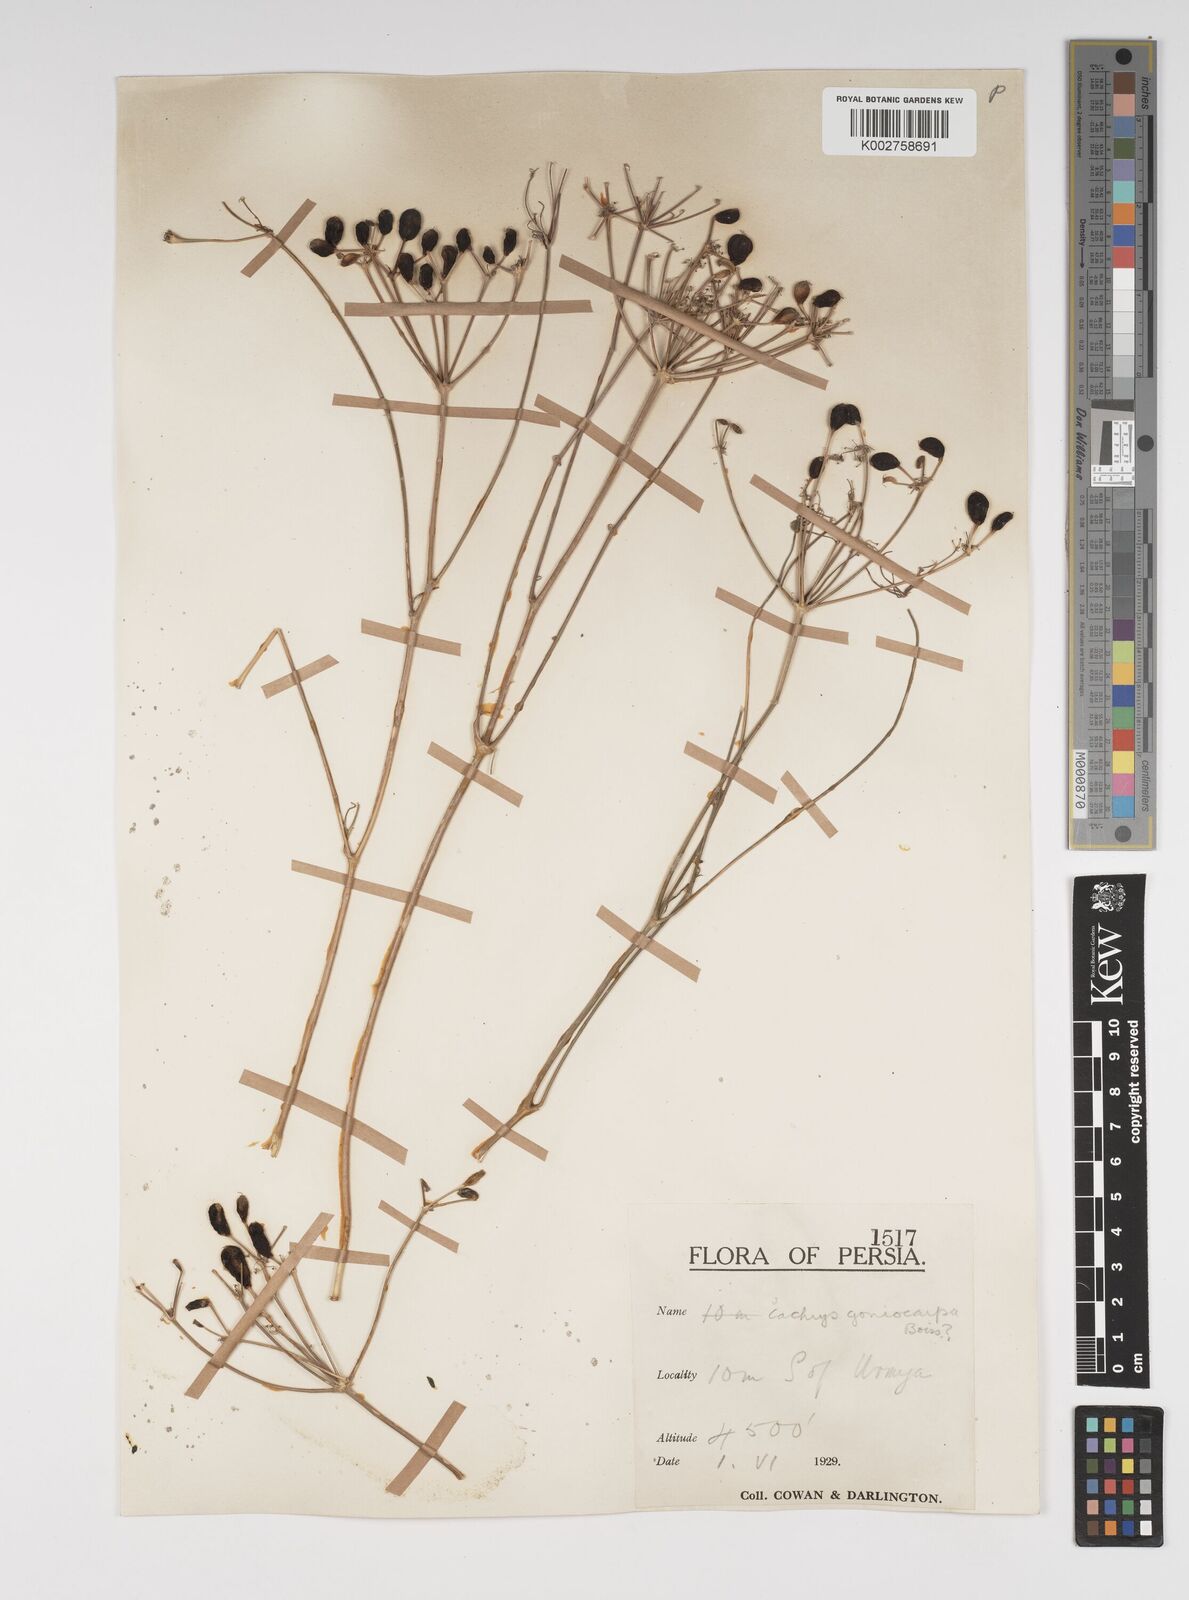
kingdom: Plantae
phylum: Tracheophyta
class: Magnoliopsida
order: Apiales
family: Apiaceae
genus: Prangos
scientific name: Prangos ferulacea
